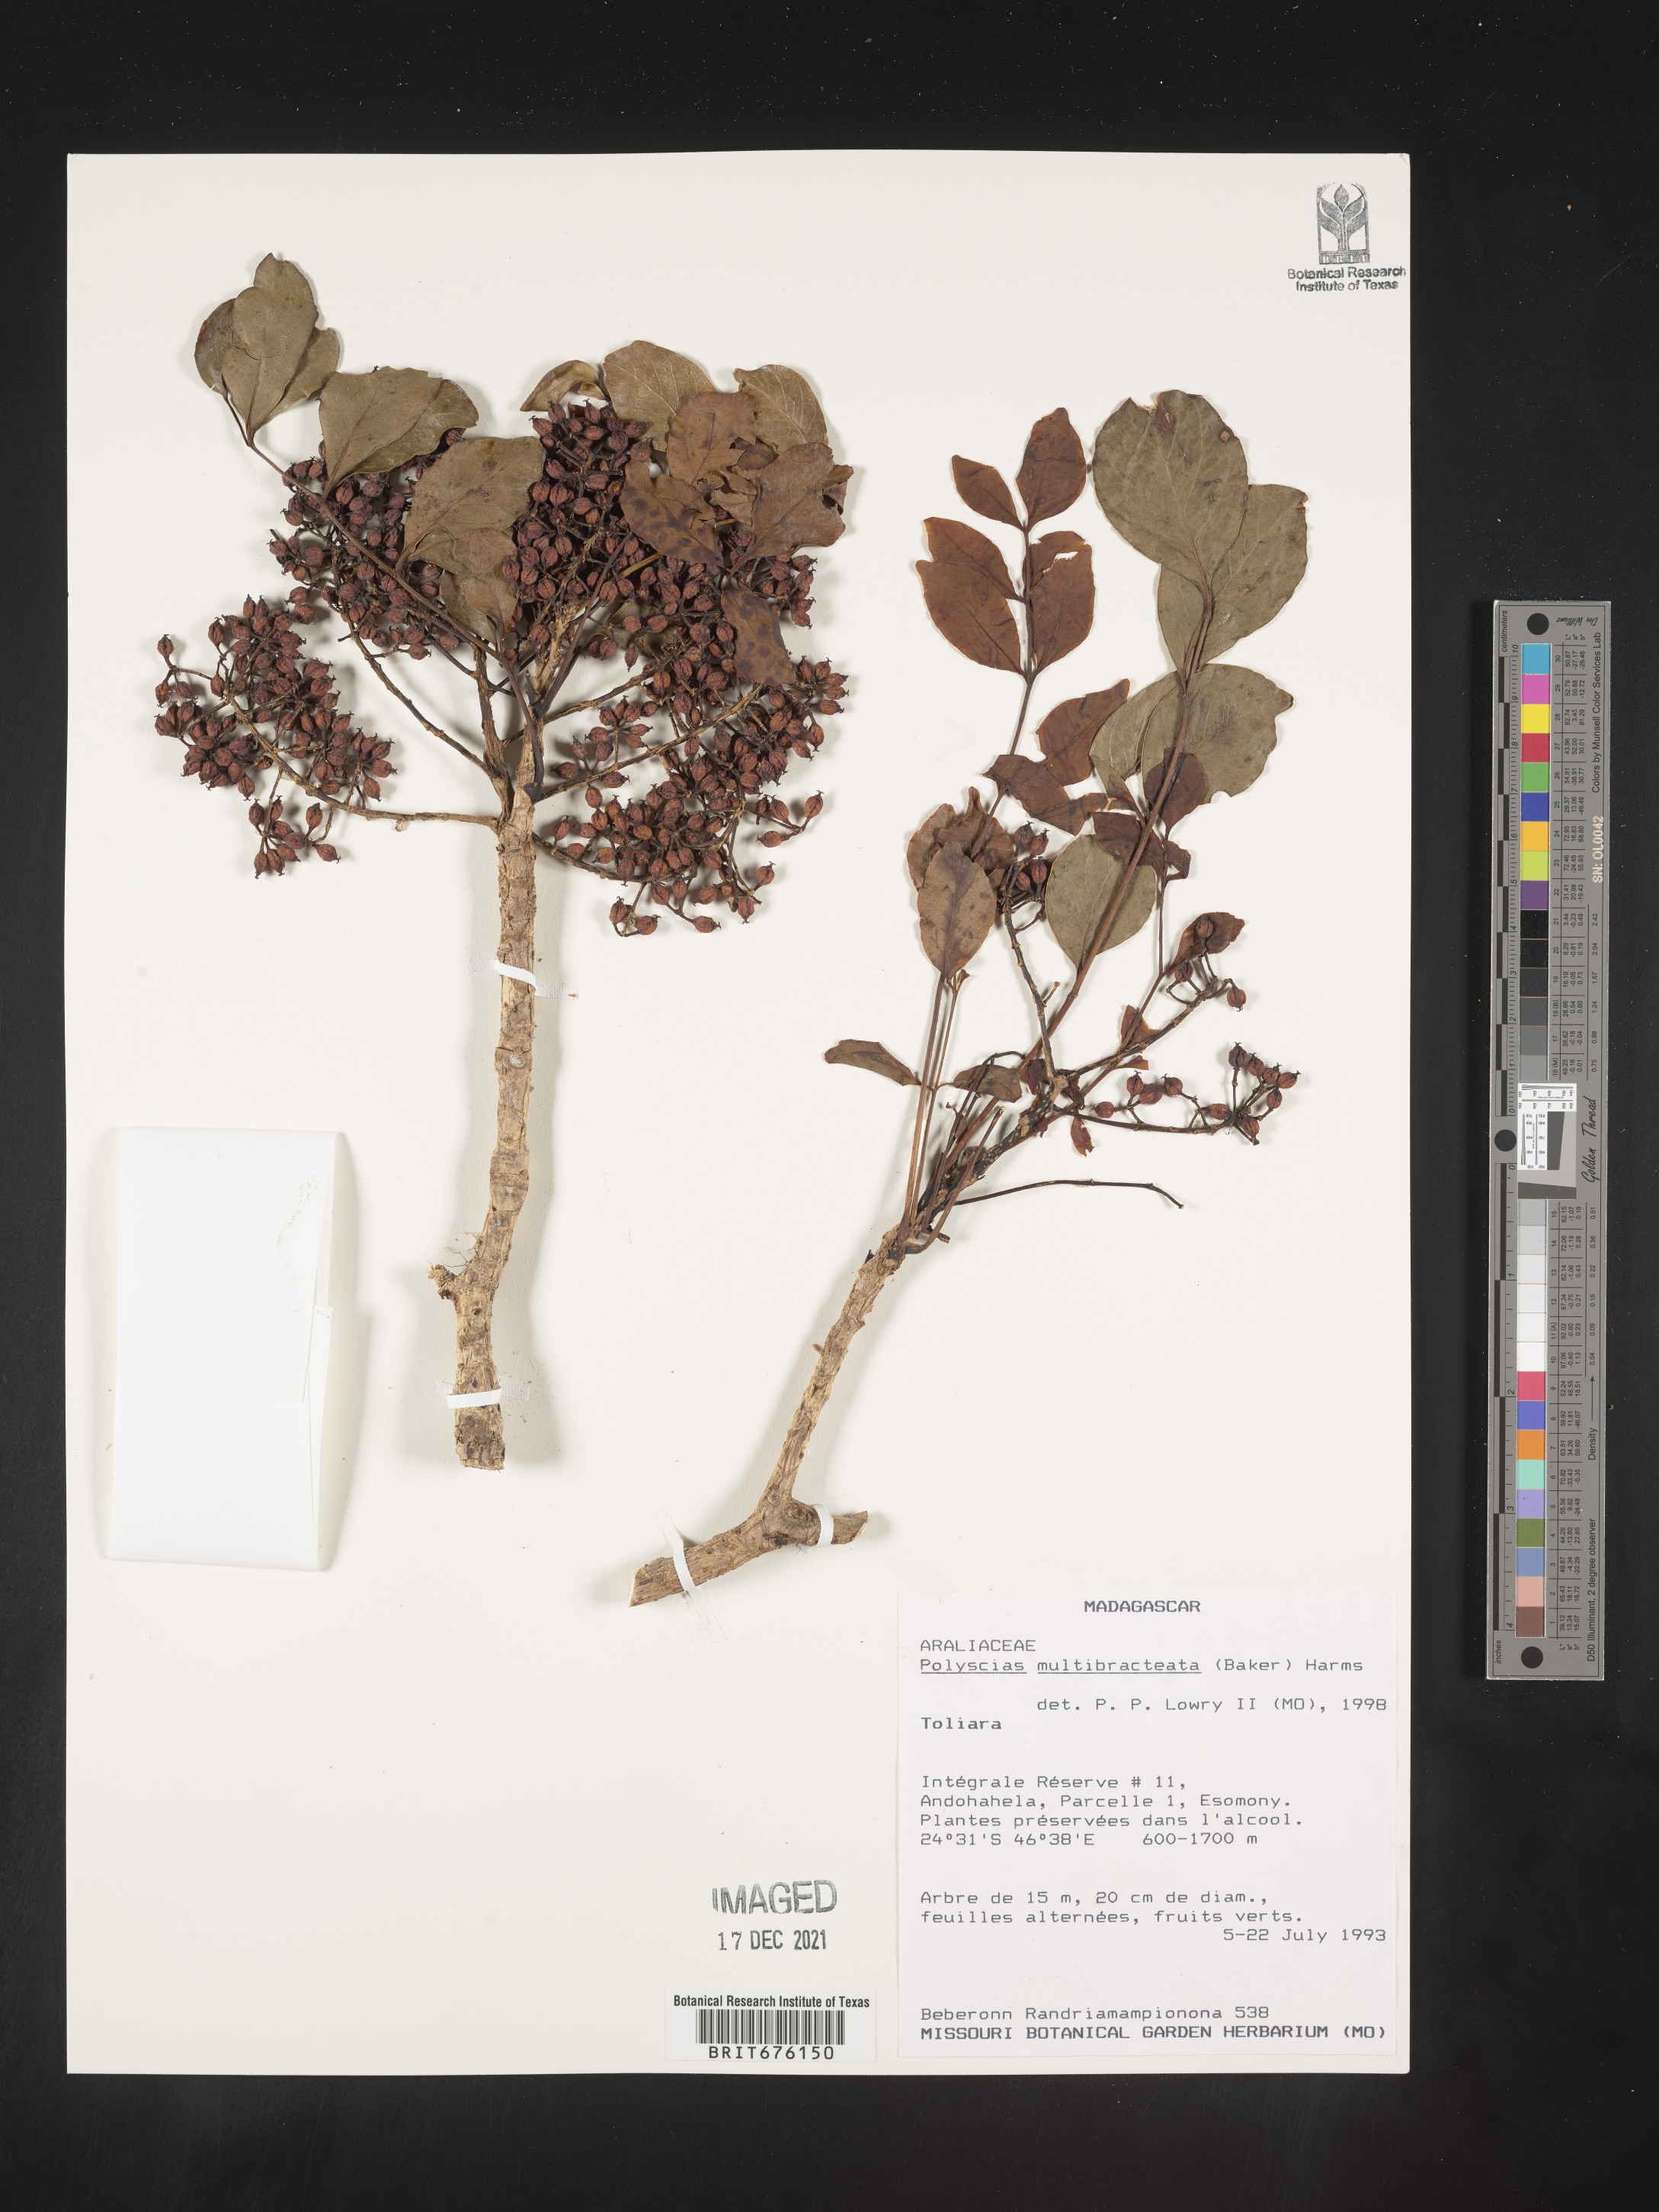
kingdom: Plantae
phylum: Tracheophyta
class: Magnoliopsida
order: Apiales
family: Araliaceae
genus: Polyscias
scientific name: Polyscias
